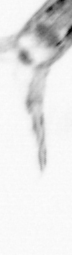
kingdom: Animalia
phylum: Arthropoda
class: Copepoda
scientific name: Copepoda
